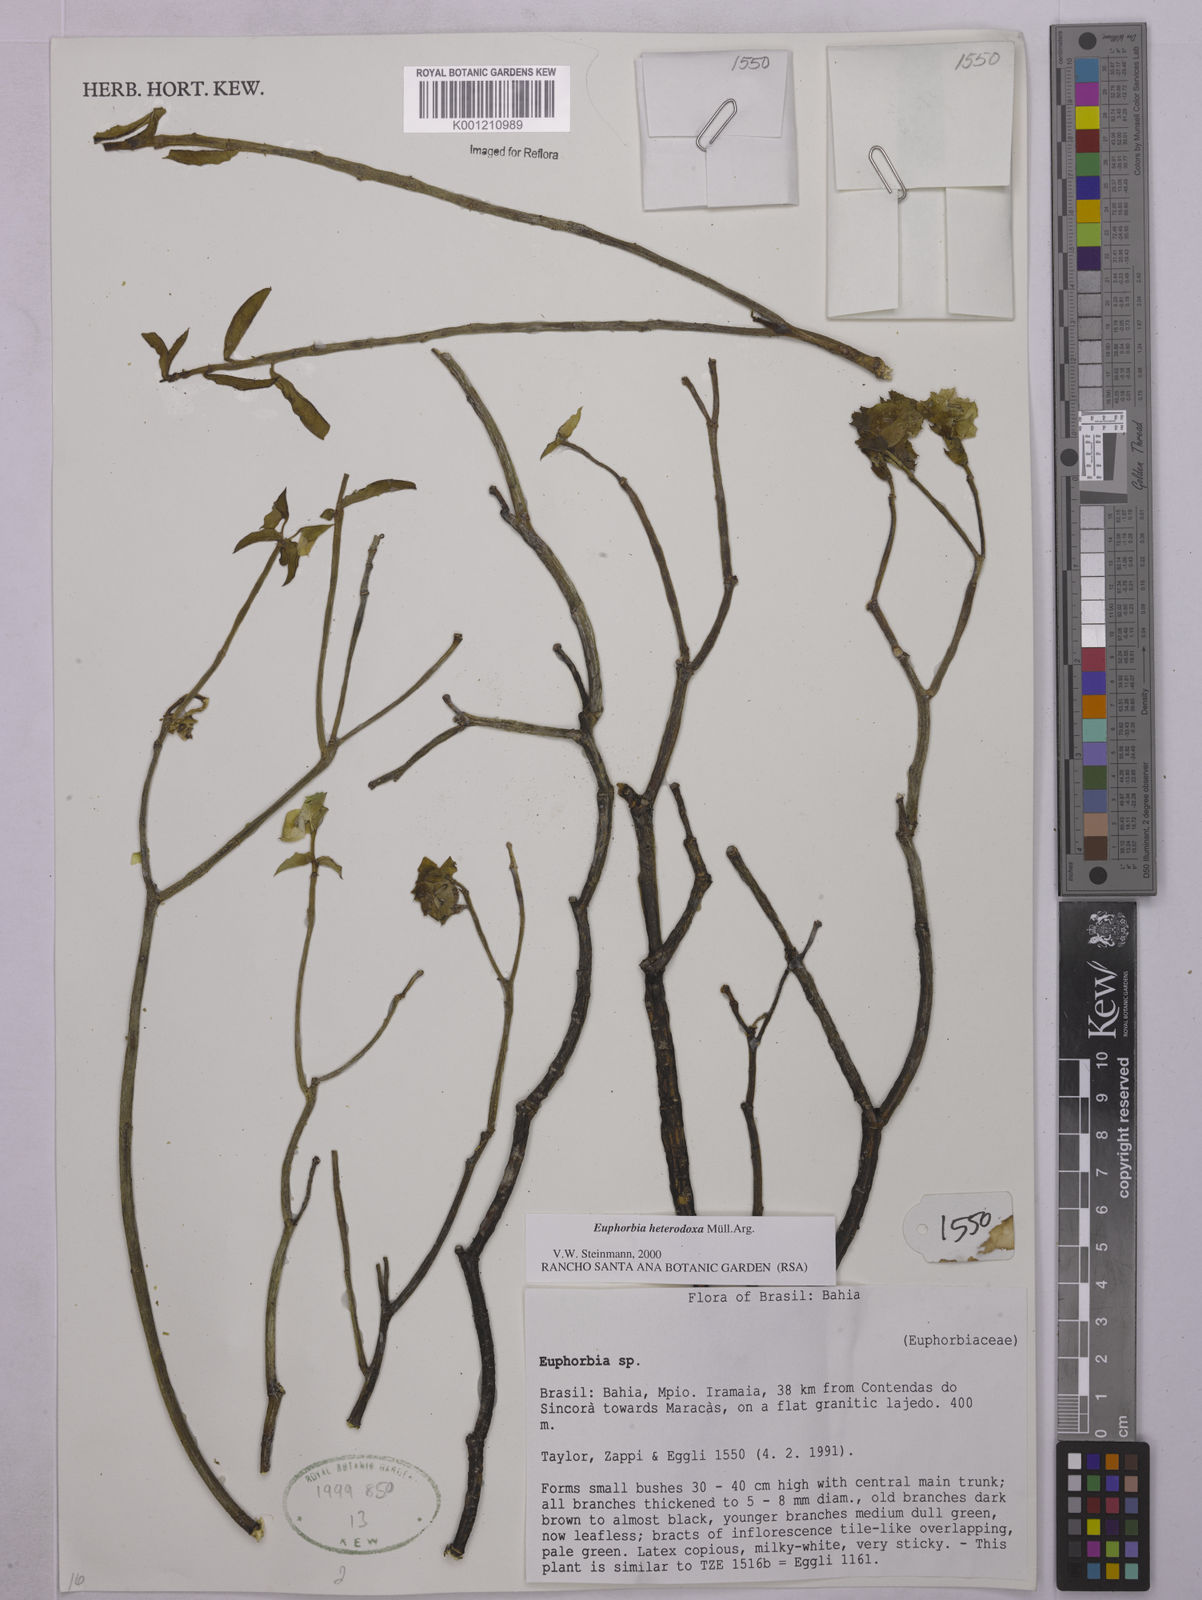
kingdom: Plantae
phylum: Tracheophyta
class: Magnoliopsida
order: Malpighiales
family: Euphorbiaceae
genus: Euphorbia
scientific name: Euphorbia
